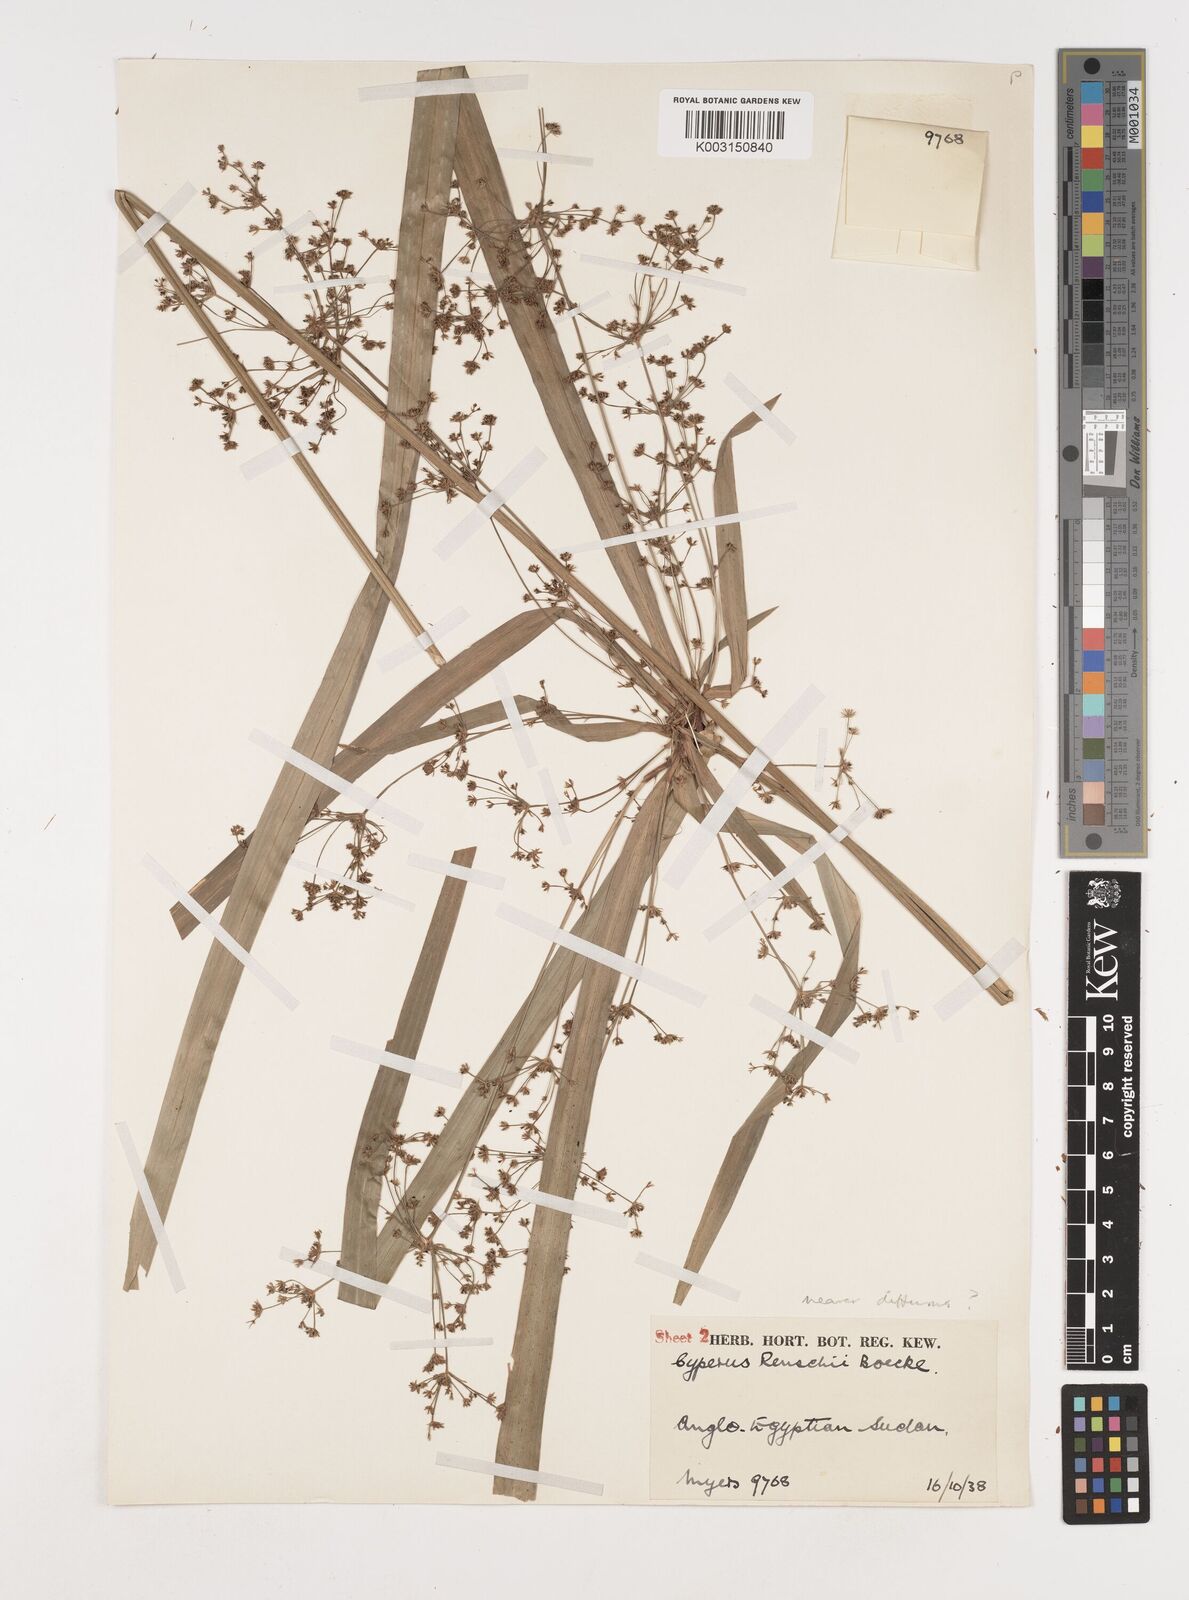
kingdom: Plantae
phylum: Tracheophyta
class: Liliopsida
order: Poales
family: Cyperaceae
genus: Cyperus
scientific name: Cyperus renschii
